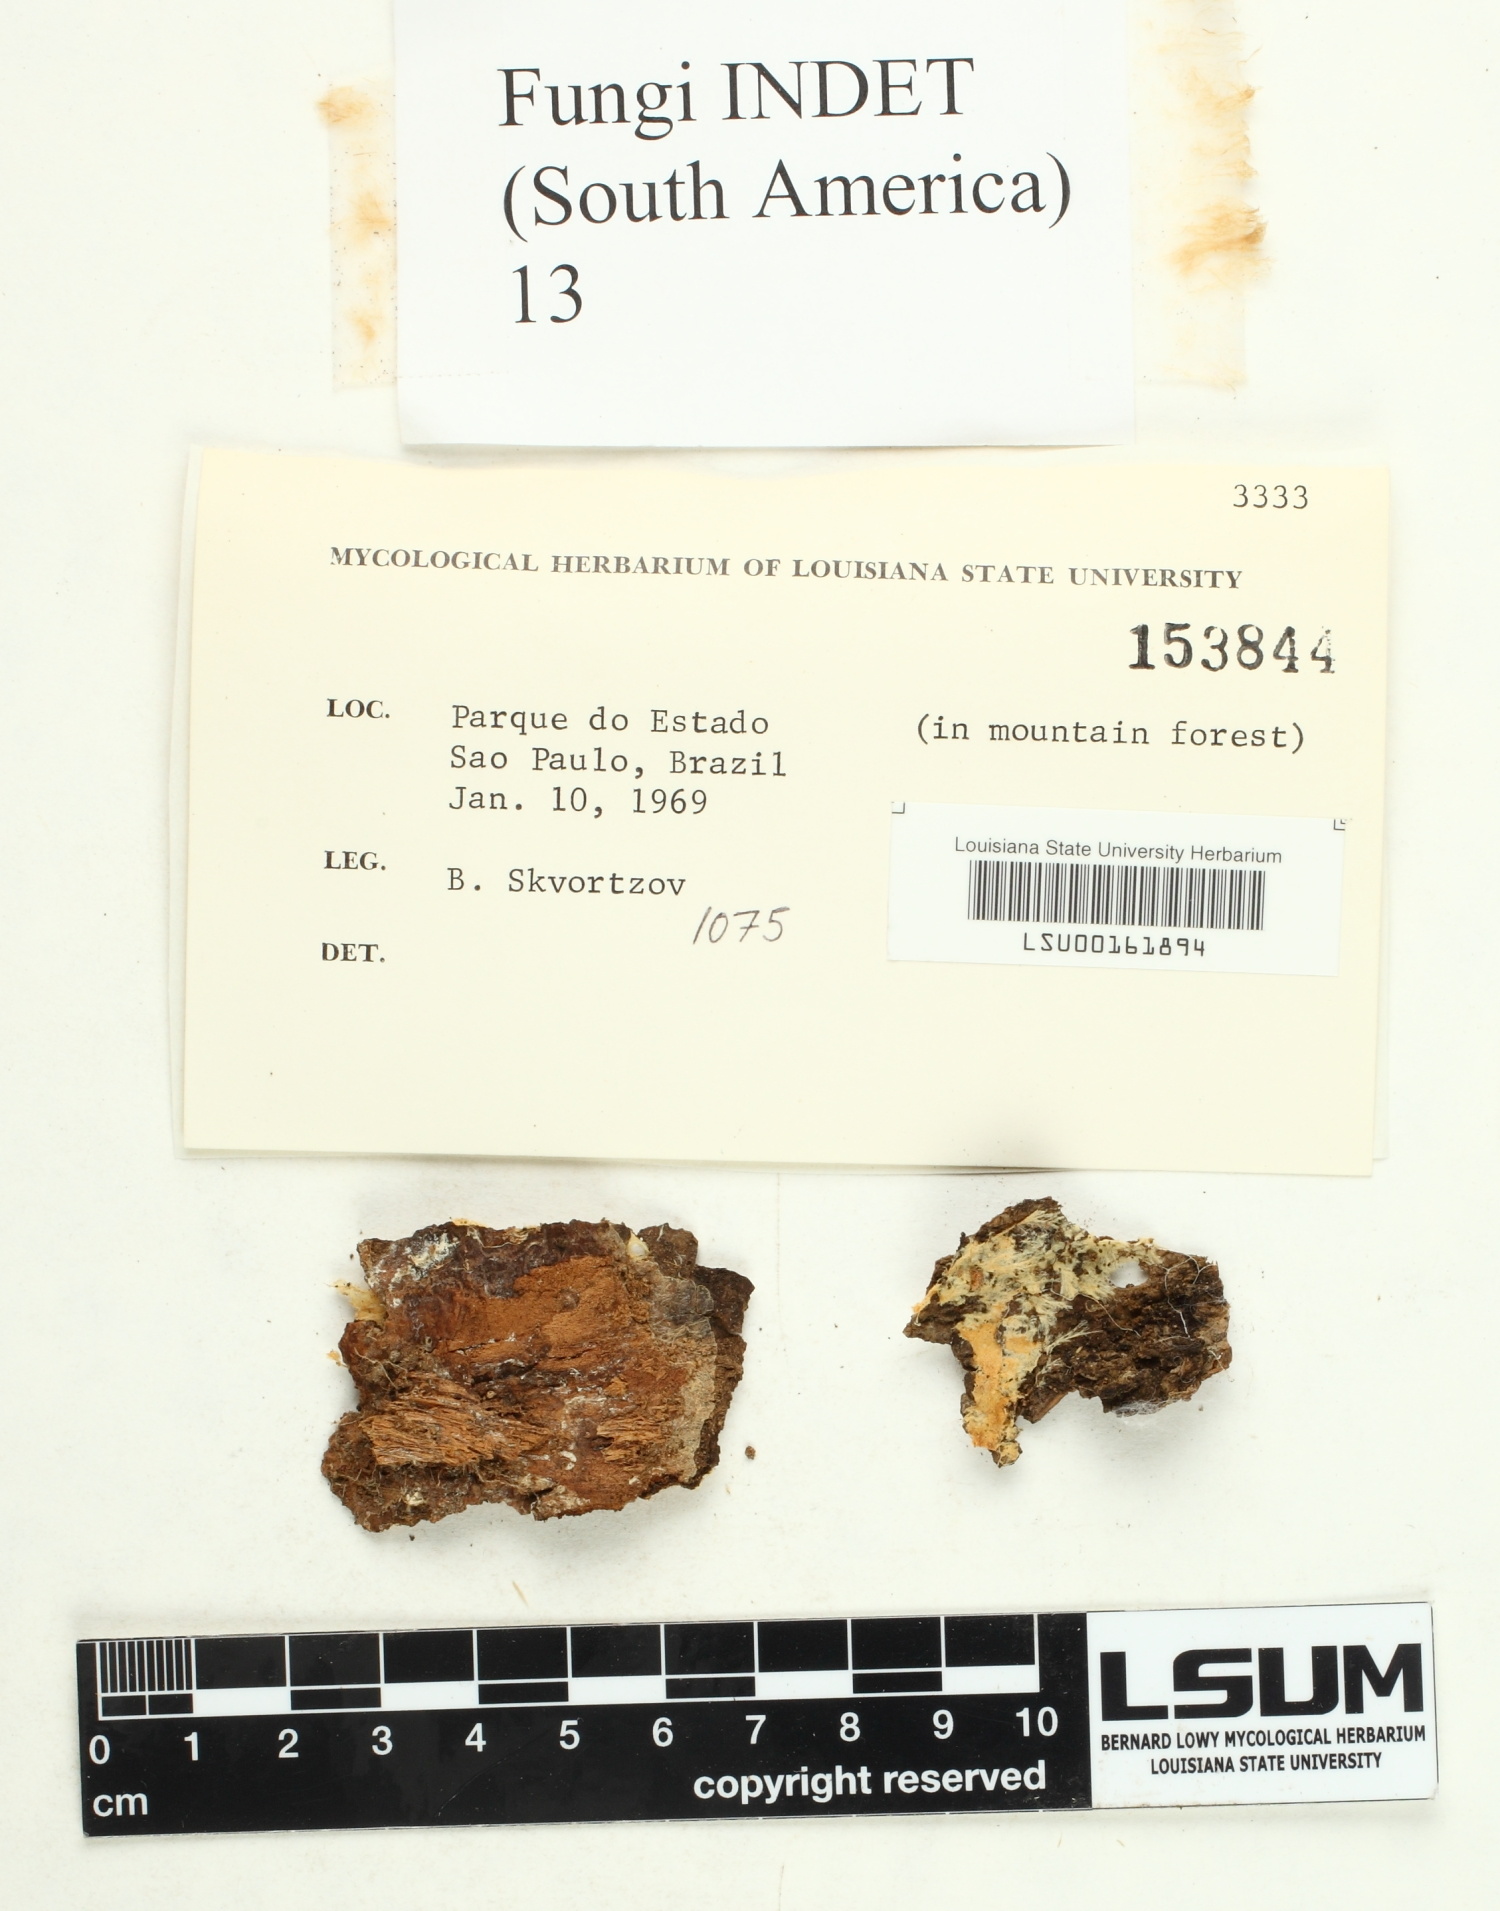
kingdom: Fungi
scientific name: Fungi
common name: Fungi
